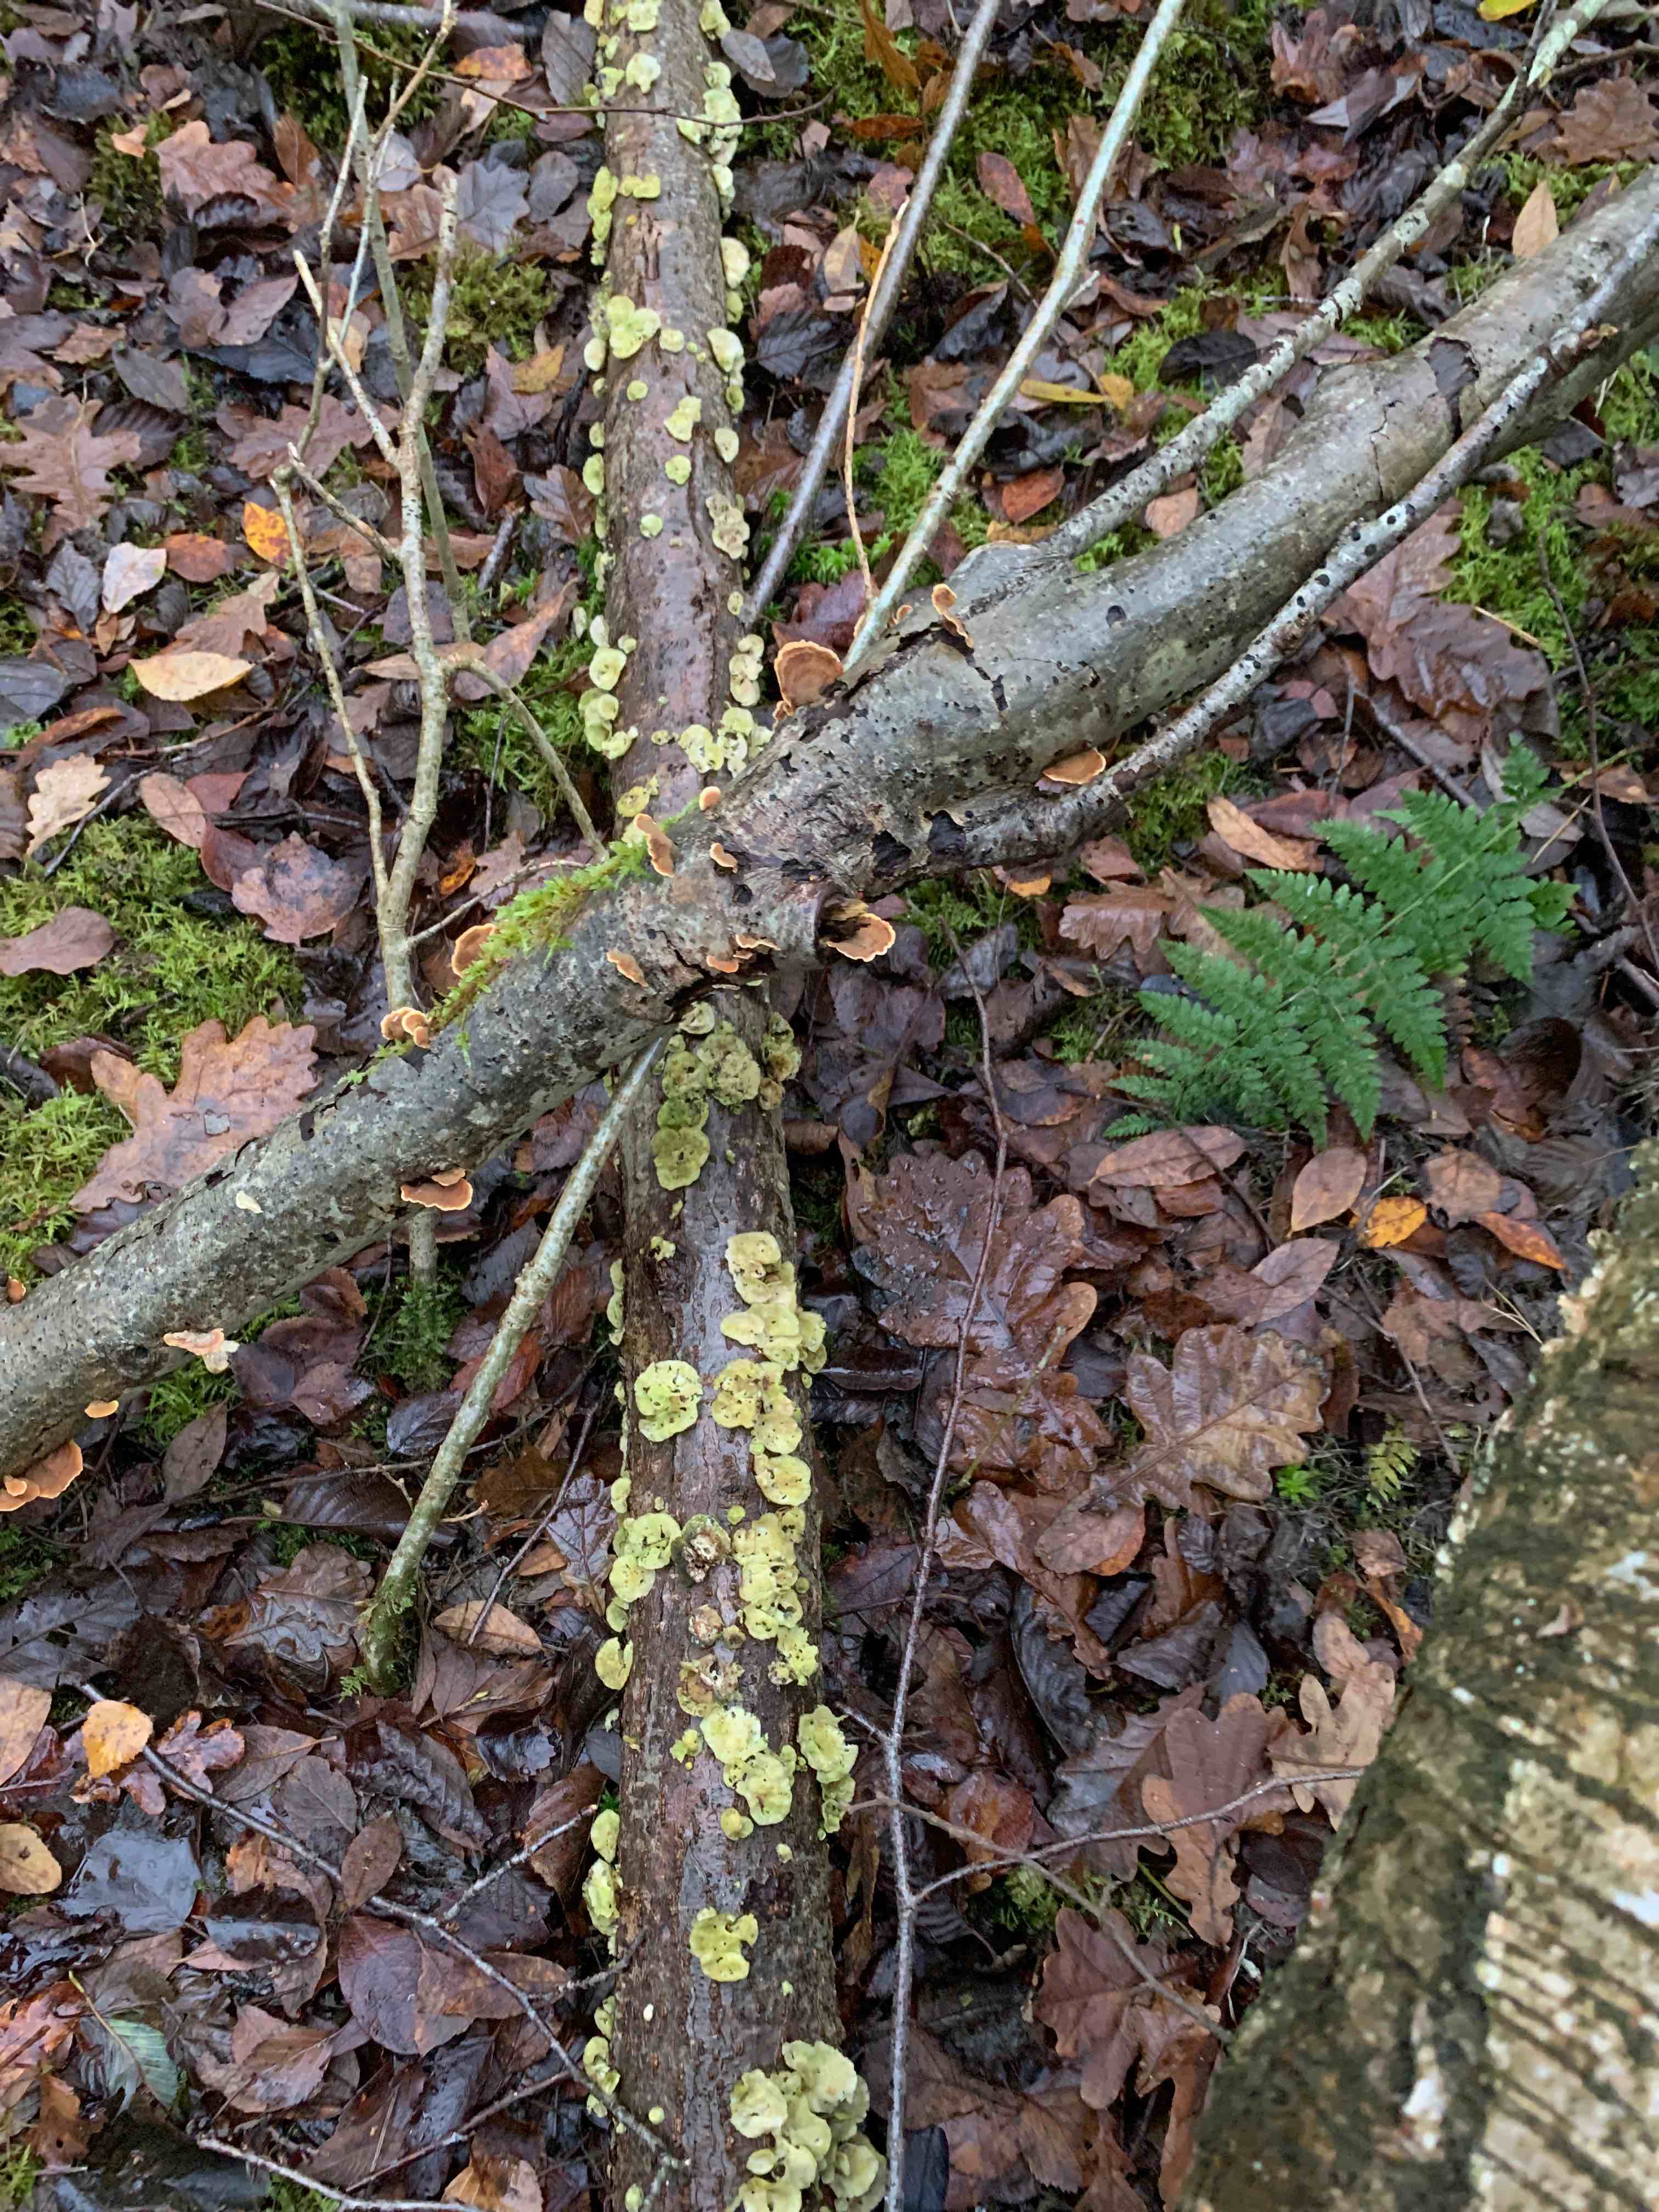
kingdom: Fungi
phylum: Basidiomycota
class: Agaricomycetes
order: Russulales
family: Stereaceae
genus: Stereum
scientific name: Stereum hirsutum
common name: håret lædersvamp
